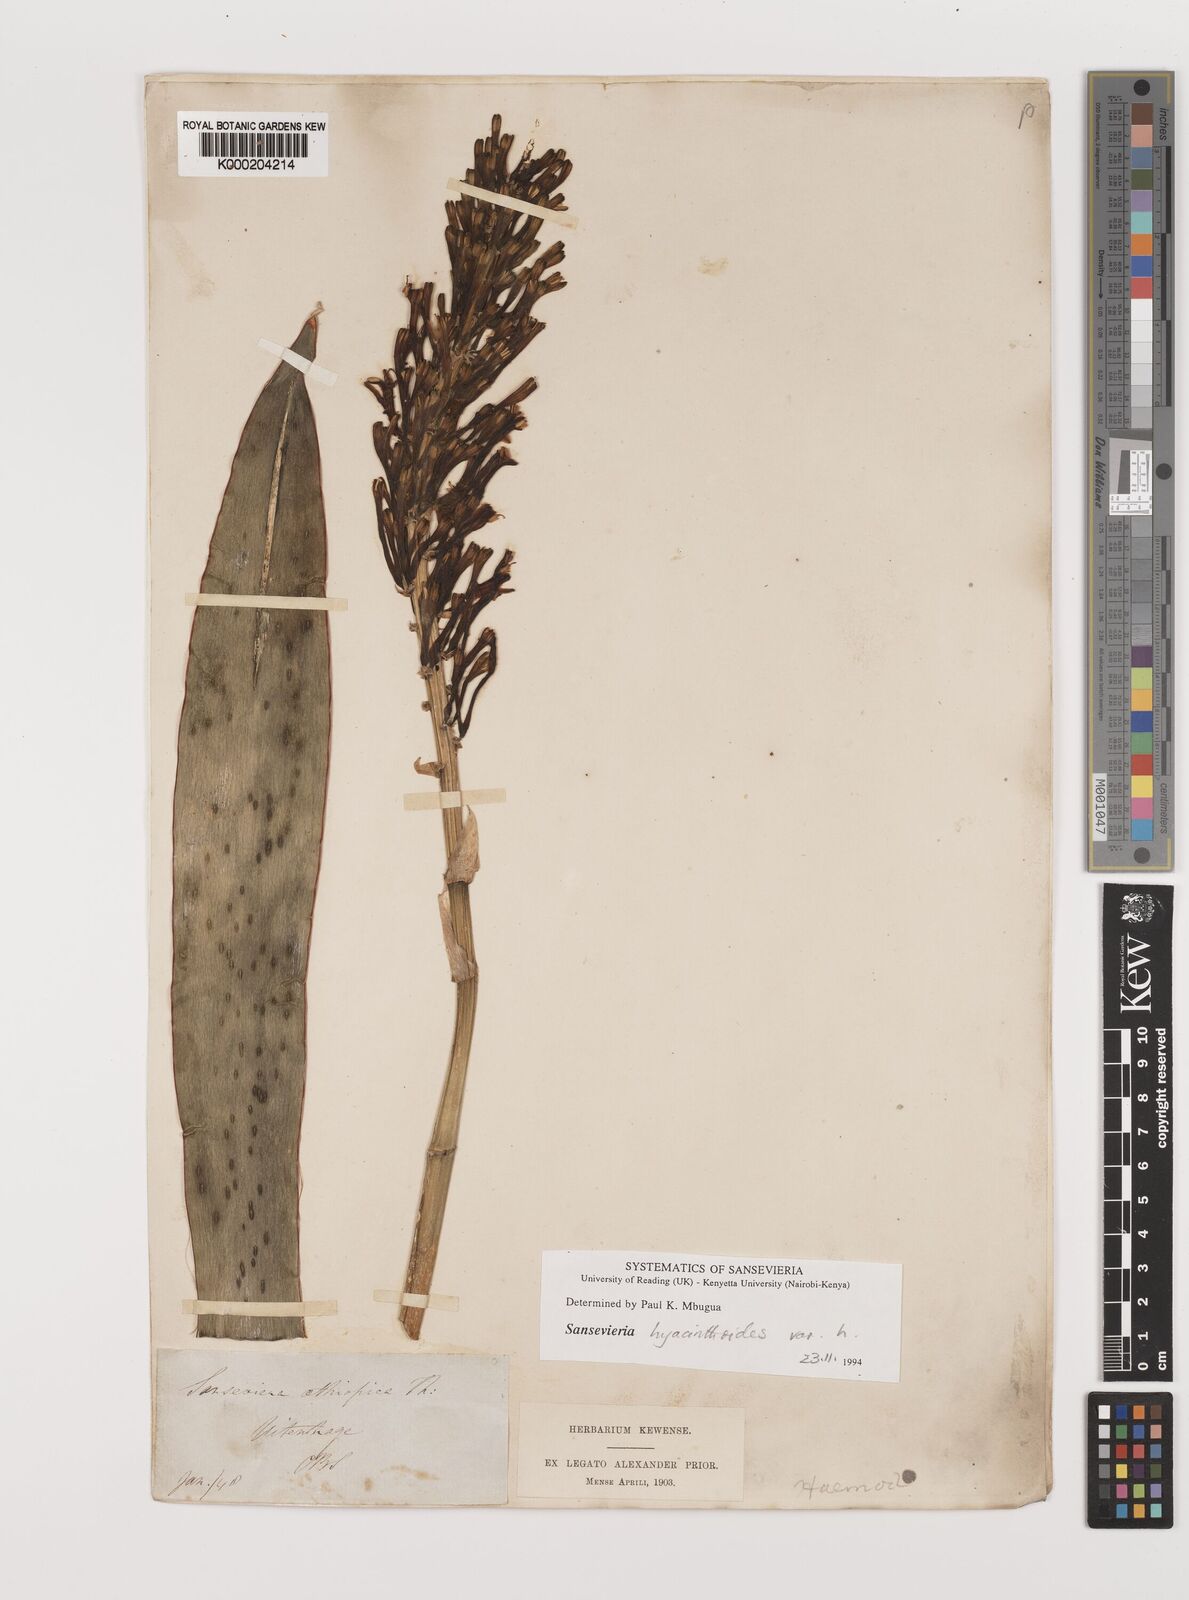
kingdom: Plantae
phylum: Tracheophyta
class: Liliopsida
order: Asparagales
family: Asparagaceae
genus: Dracaena
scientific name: Dracaena hyacinthoides
